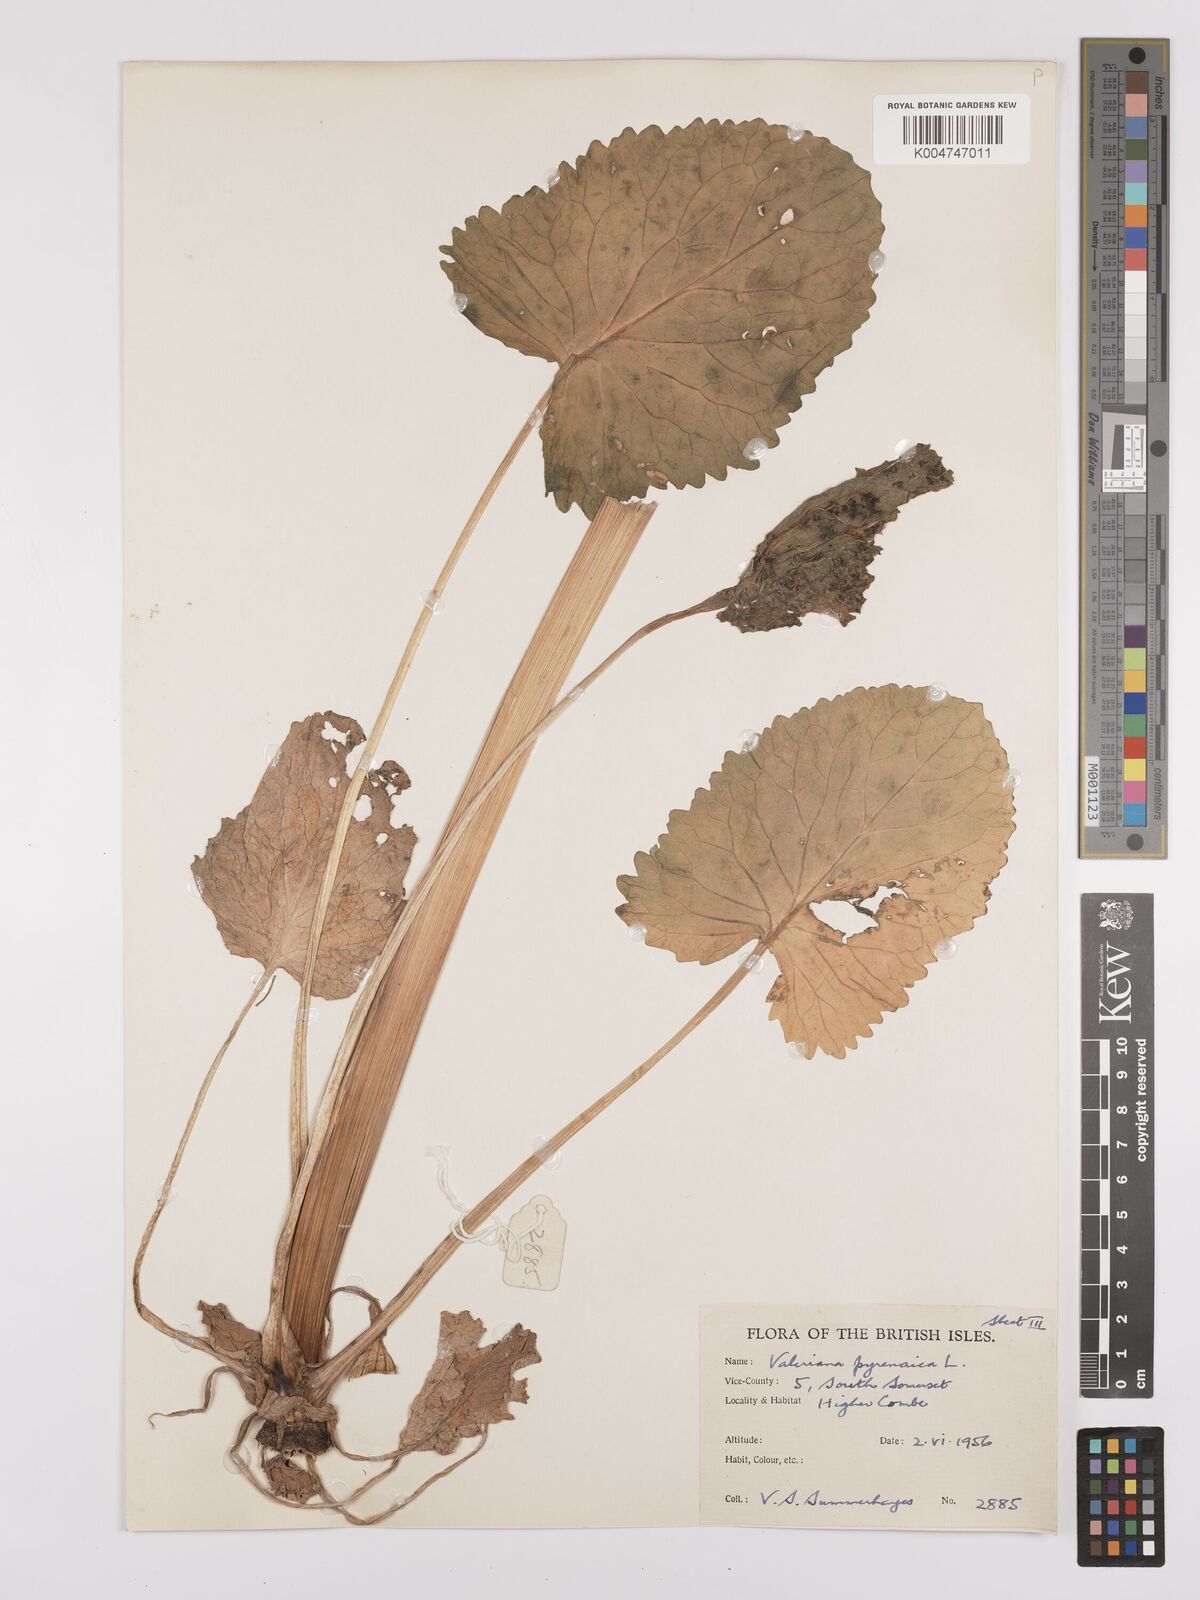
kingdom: Plantae
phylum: Tracheophyta
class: Magnoliopsida
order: Dipsacales
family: Caprifoliaceae
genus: Valeriana
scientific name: Valeriana pyrenaica
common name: Pyrenean valerian
